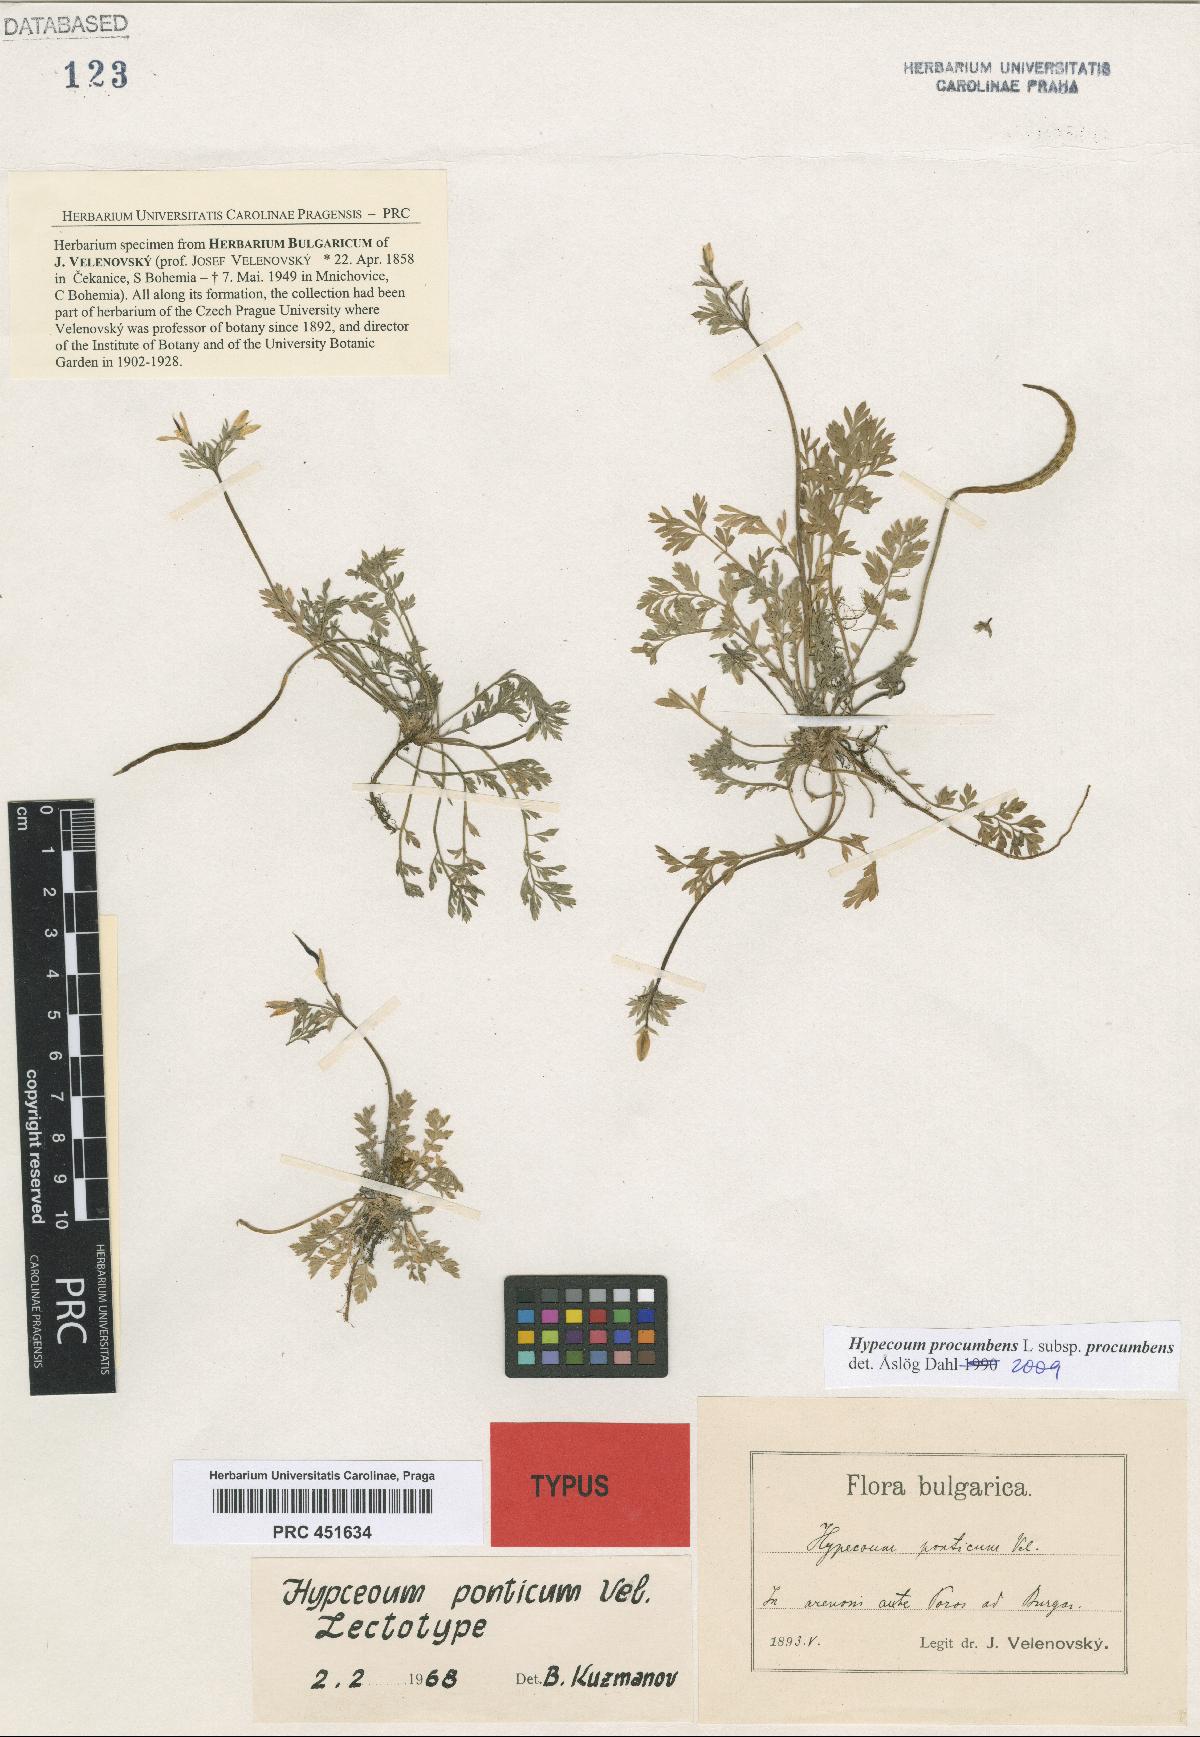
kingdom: Plantae
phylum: Tracheophyta
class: Magnoliopsida
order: Ranunculales
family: Papaveraceae
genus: Hypecoum
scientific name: Hypecoum procumbens
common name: Procumbent hypecoum
